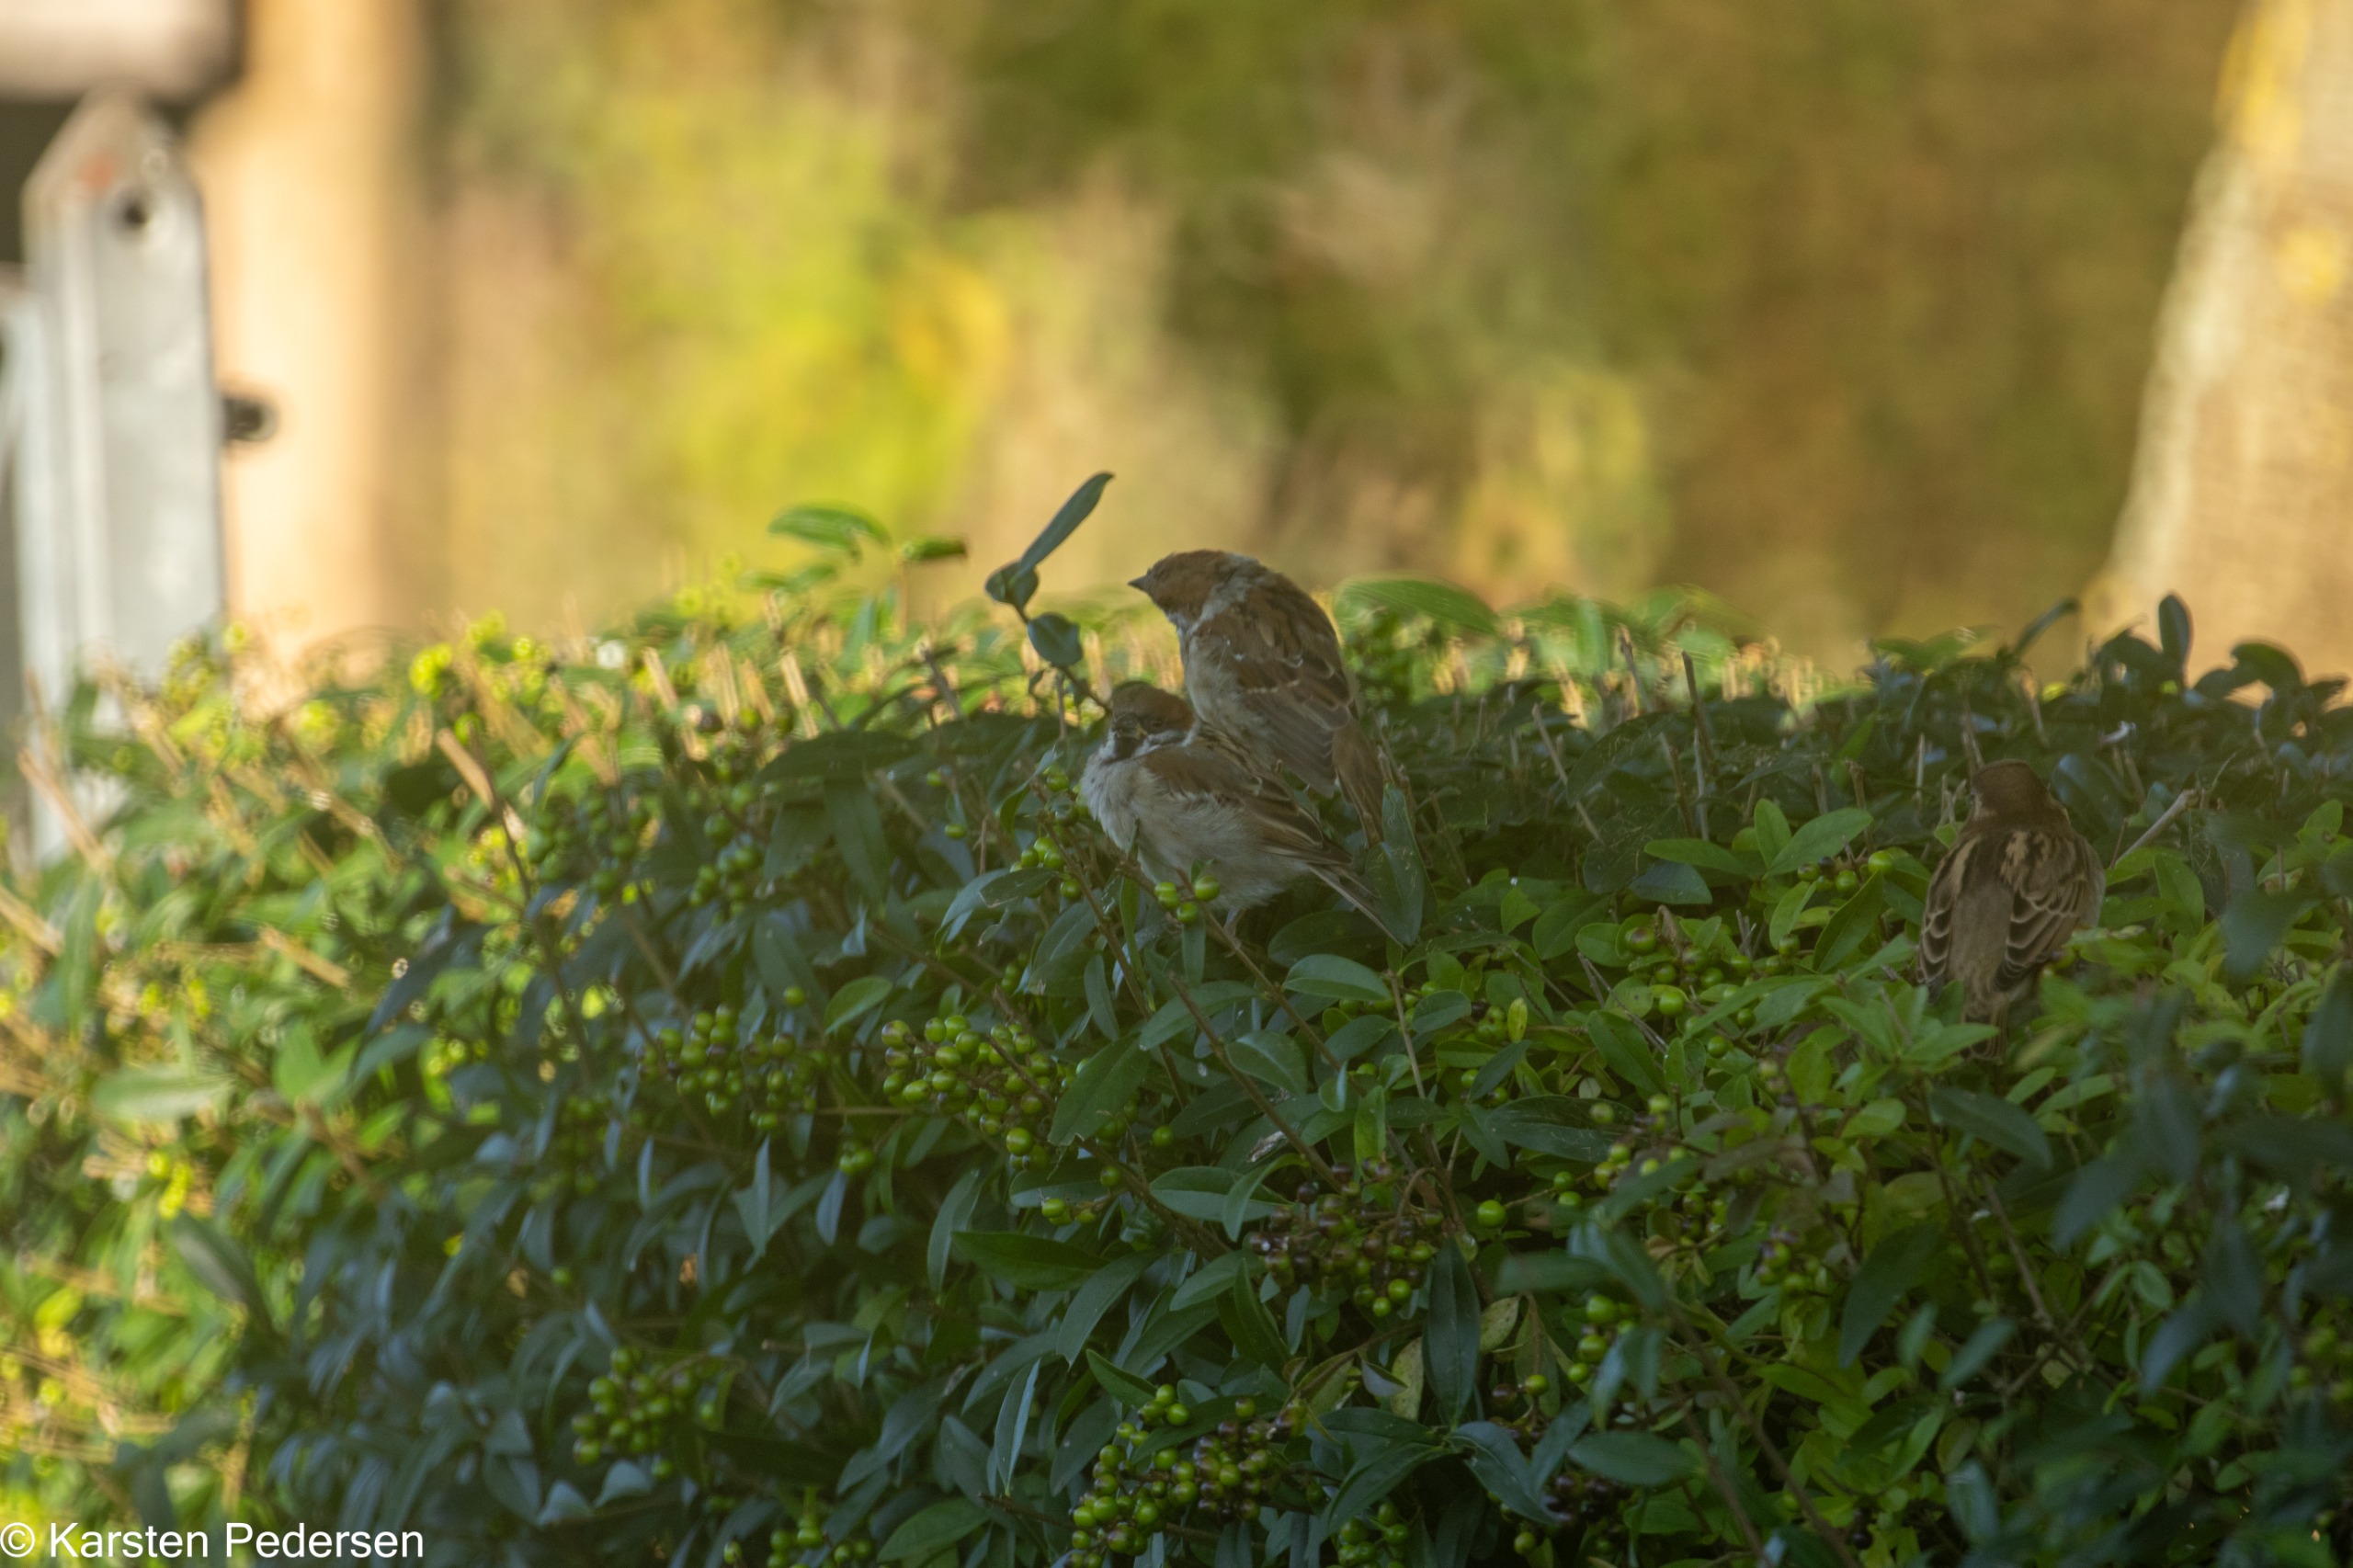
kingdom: Animalia
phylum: Chordata
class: Aves
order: Passeriformes
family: Passeridae
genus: Passer
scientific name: Passer montanus
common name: Skovspurv
